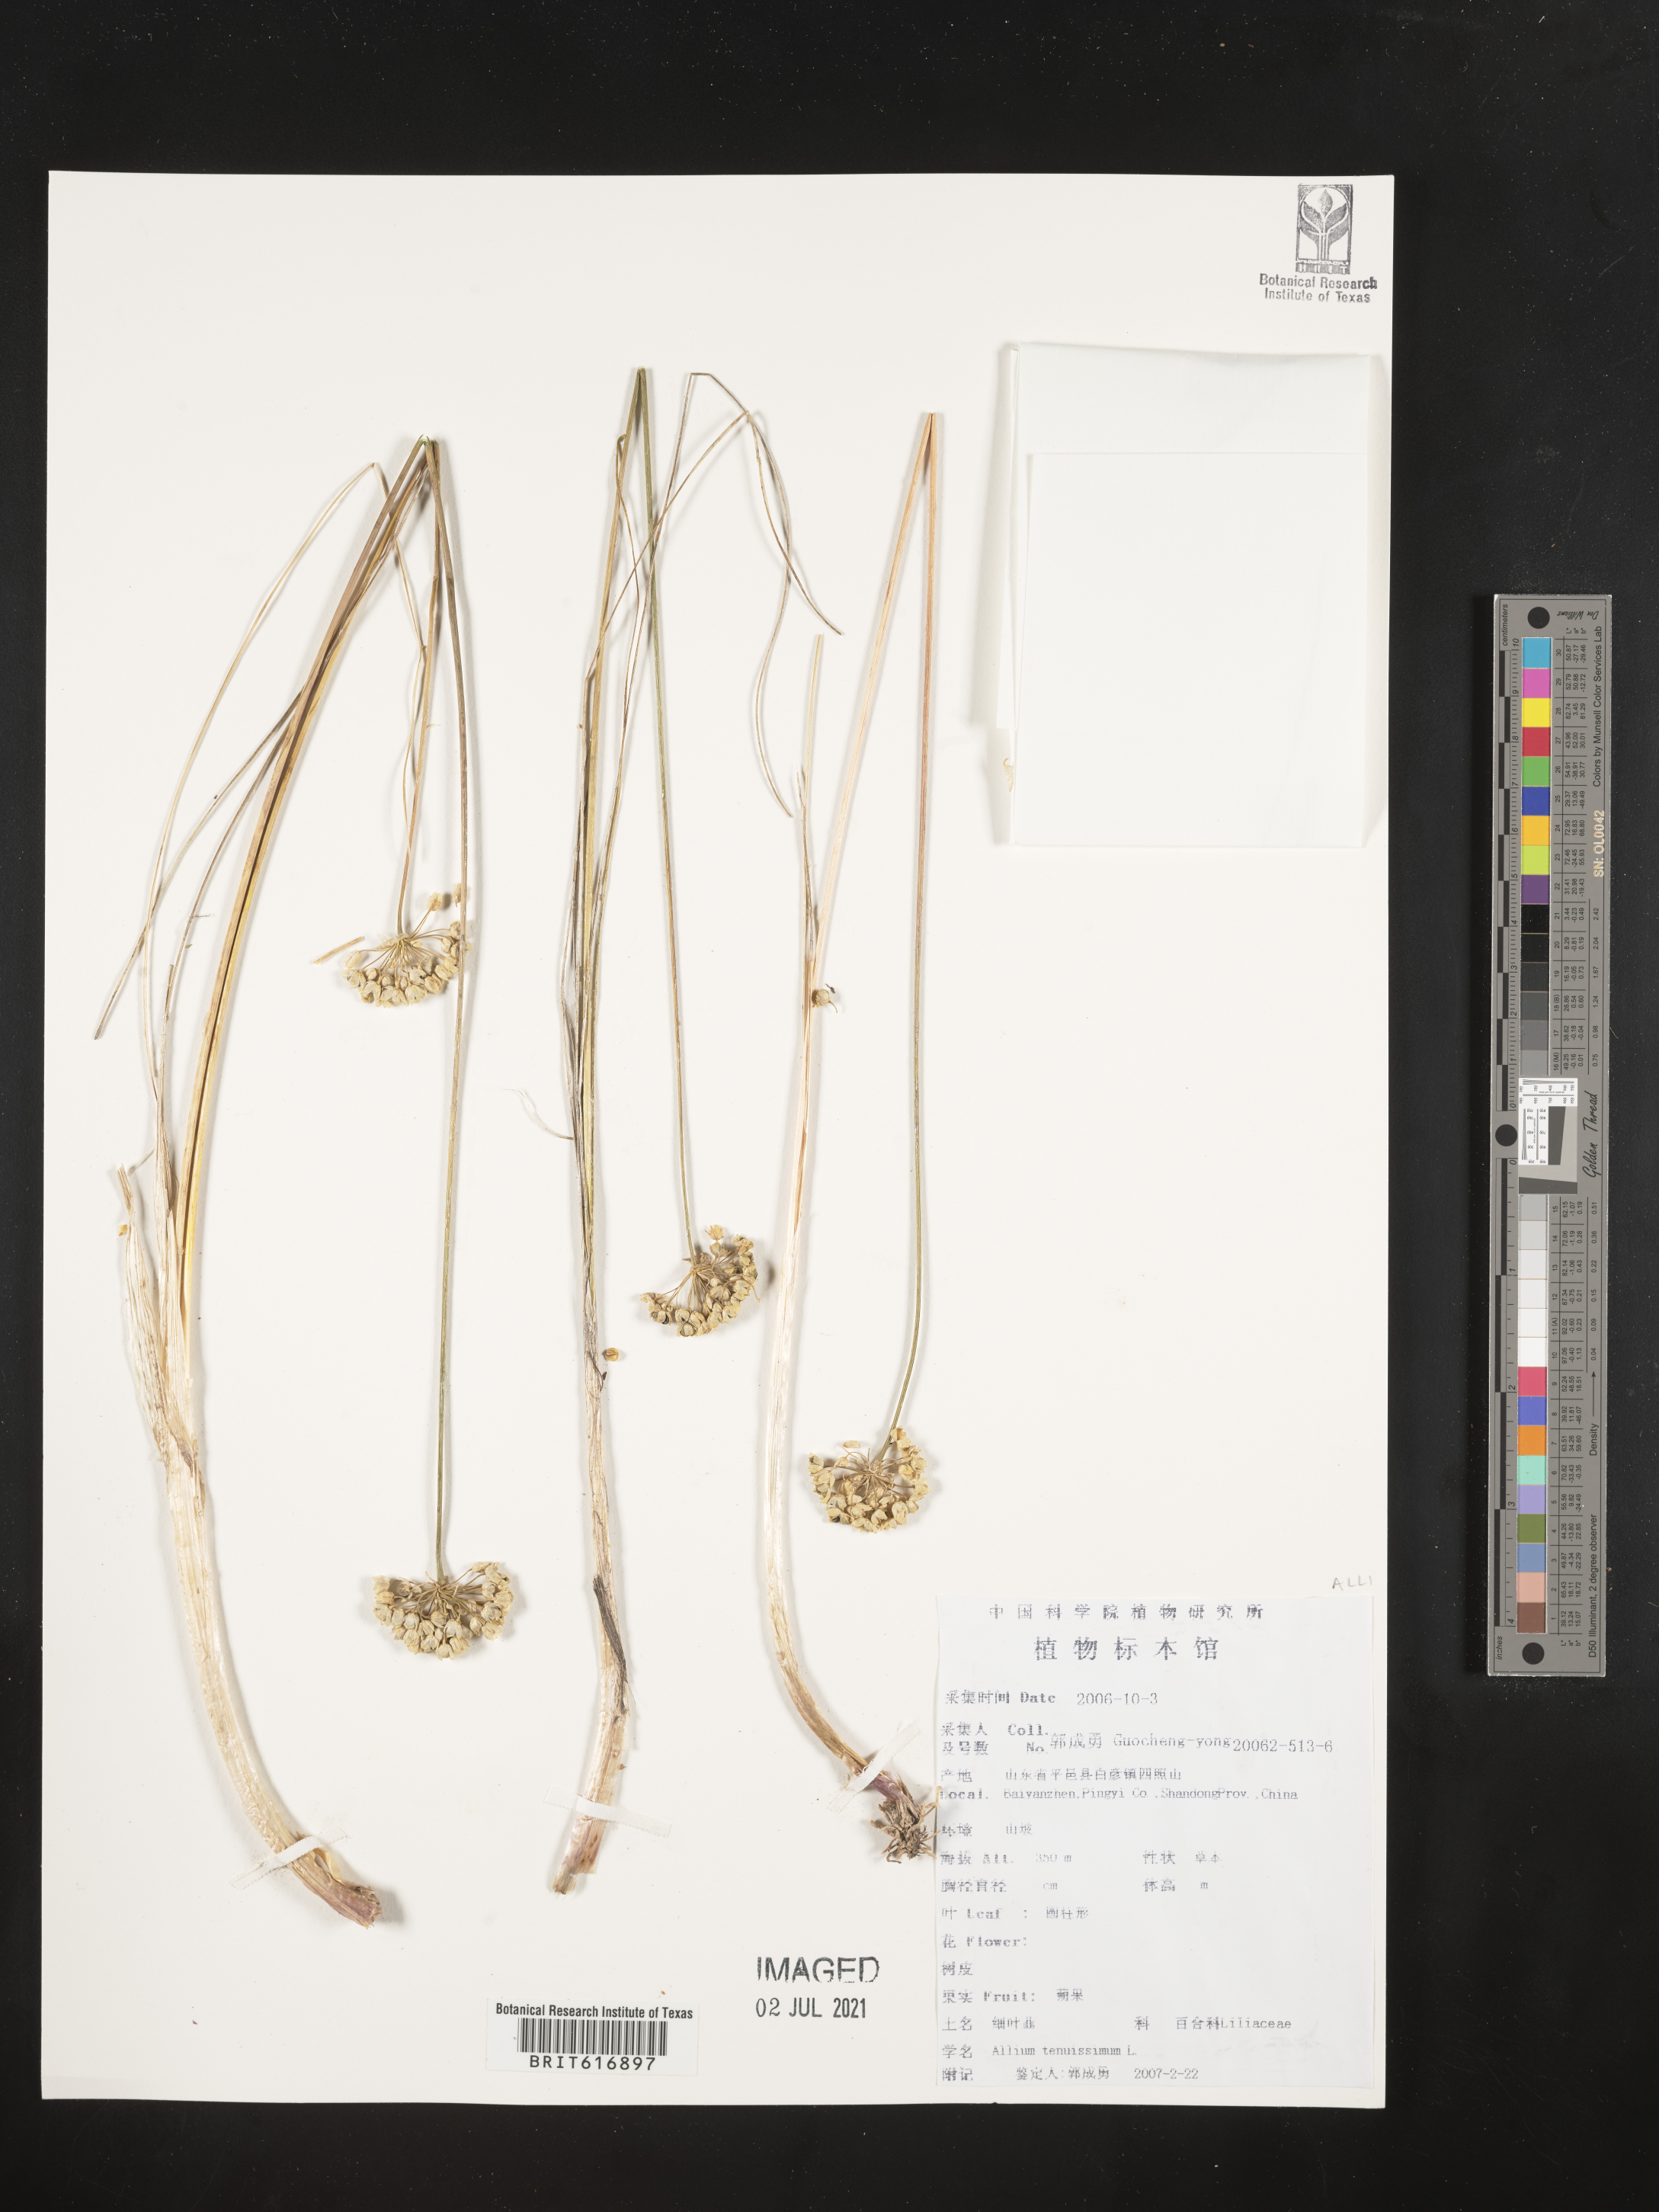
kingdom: Plantae
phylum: Tracheophyta
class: Liliopsida
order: Asparagales
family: Amaryllidaceae
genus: Allium
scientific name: Allium tenuissimum
